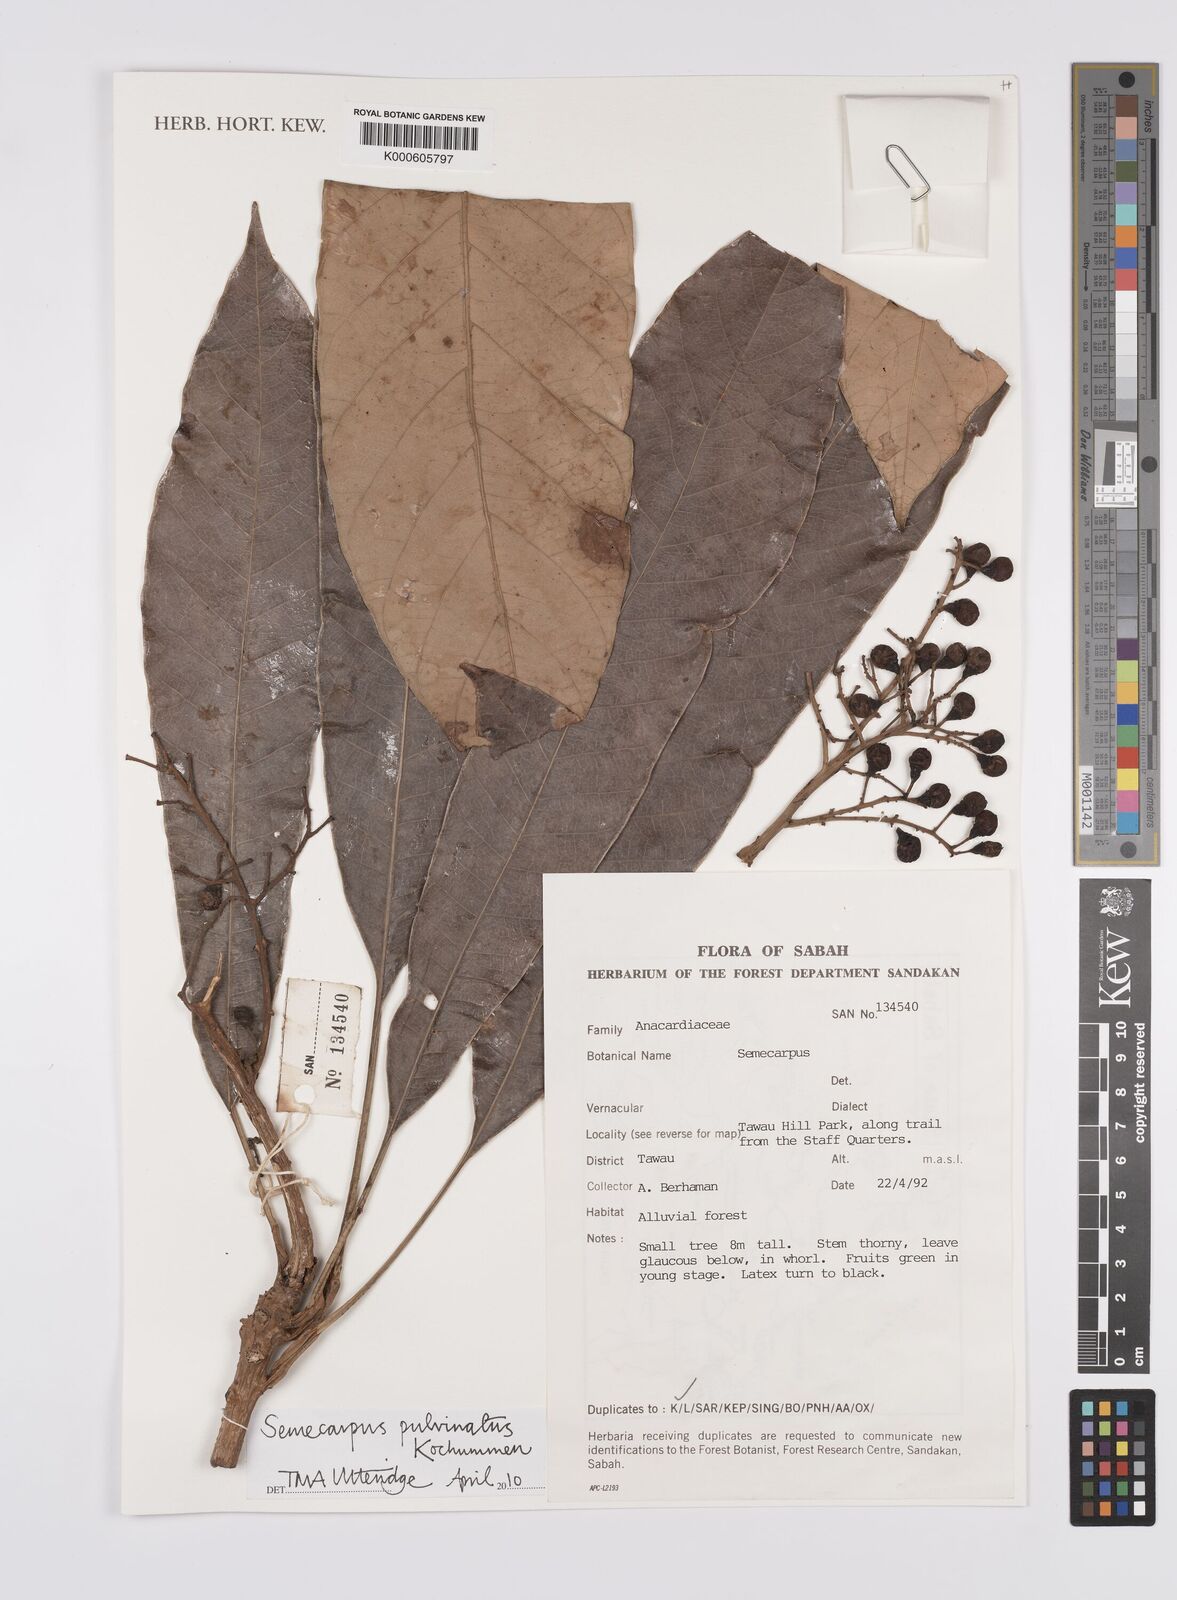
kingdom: Plantae
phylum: Tracheophyta
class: Magnoliopsida
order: Sapindales
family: Anacardiaceae
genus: Semecarpus
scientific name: Semecarpus pulvinatus
